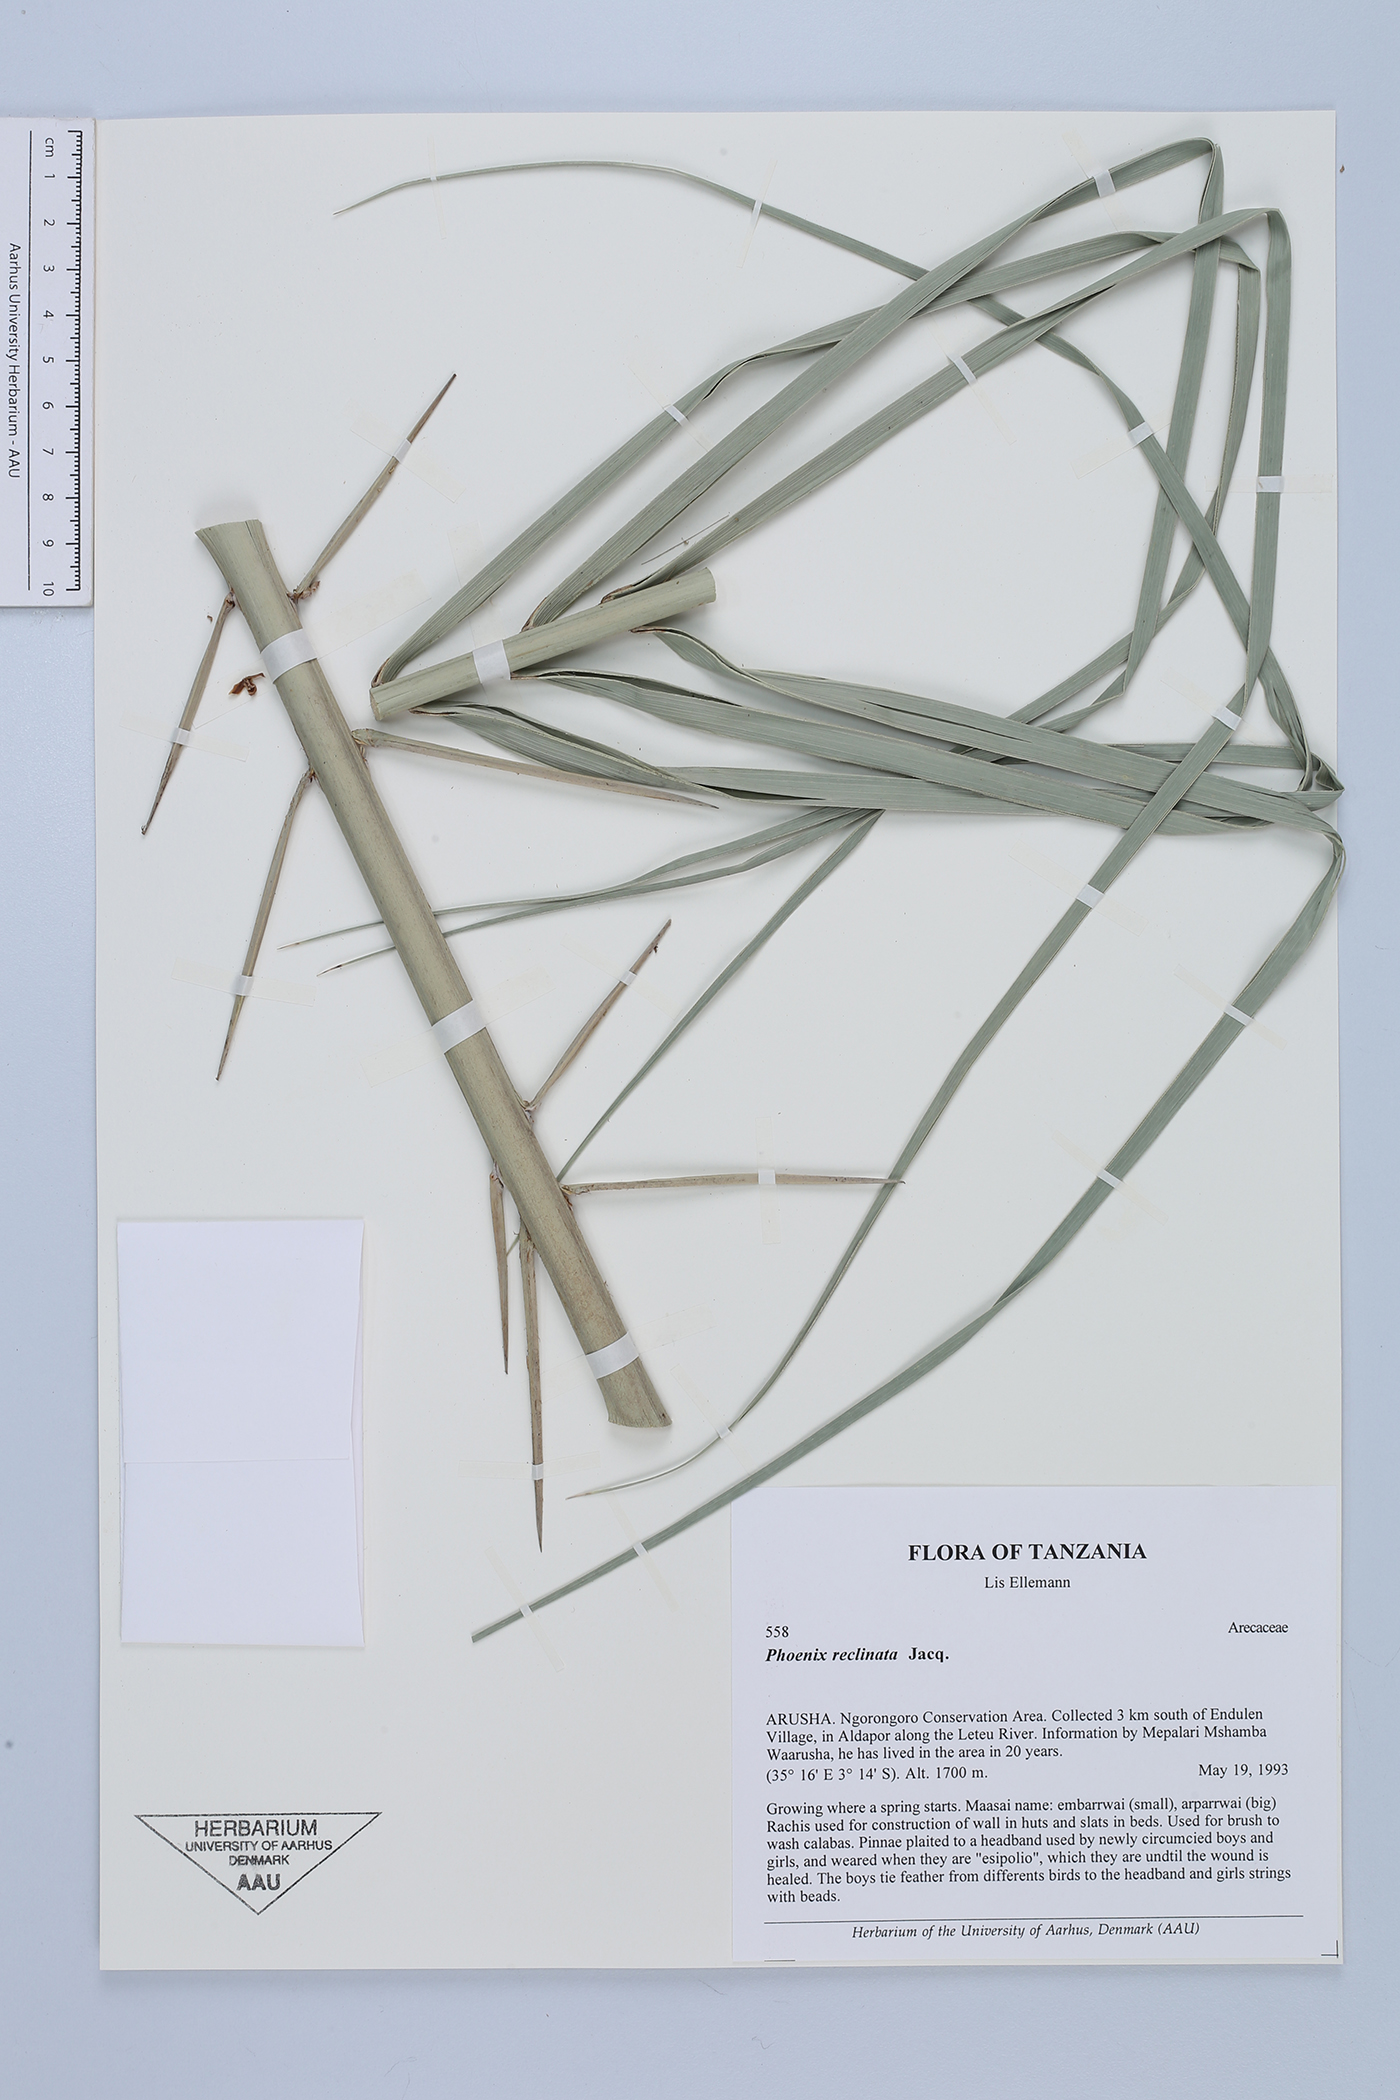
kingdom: Plantae
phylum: Tracheophyta
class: Liliopsida
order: Arecales
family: Arecaceae
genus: Phoenix
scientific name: Phoenix reclinata
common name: Senegal date palm
